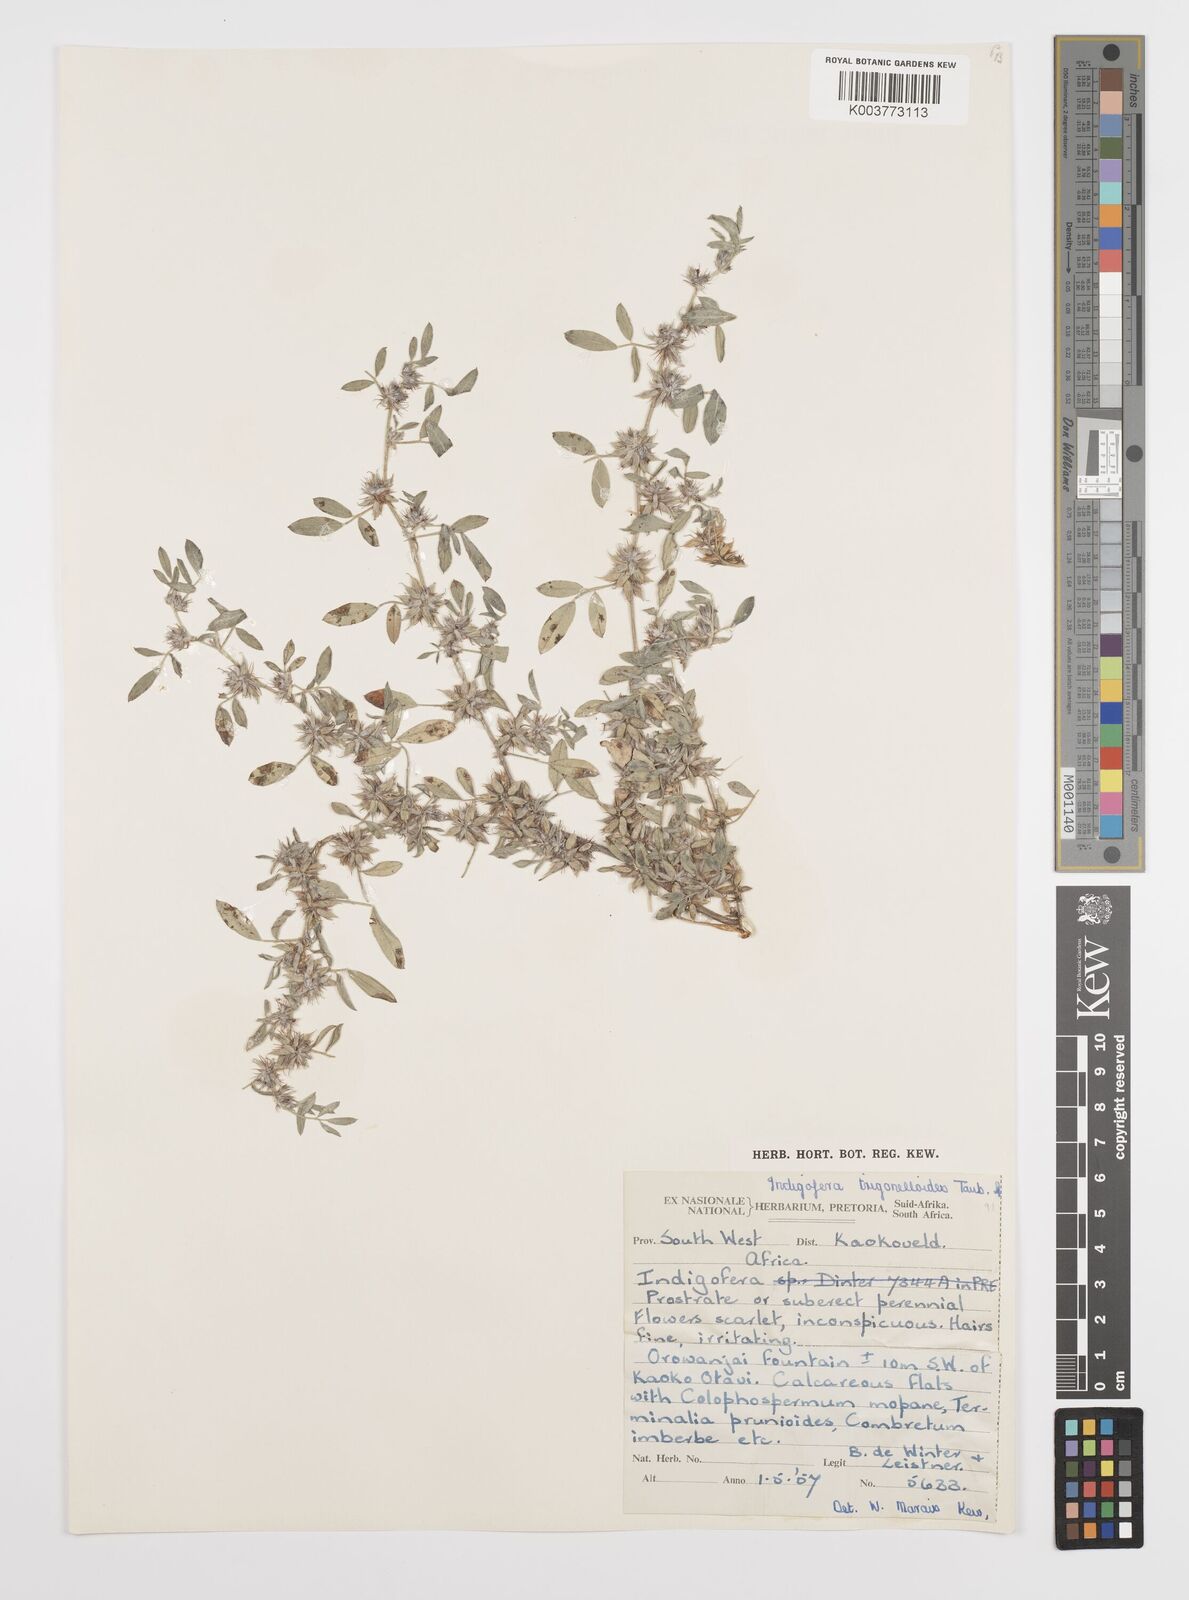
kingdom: Plantae
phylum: Tracheophyta
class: Magnoliopsida
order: Fabales
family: Fabaceae
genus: Indigofera
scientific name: Indigofera trigonelloides
